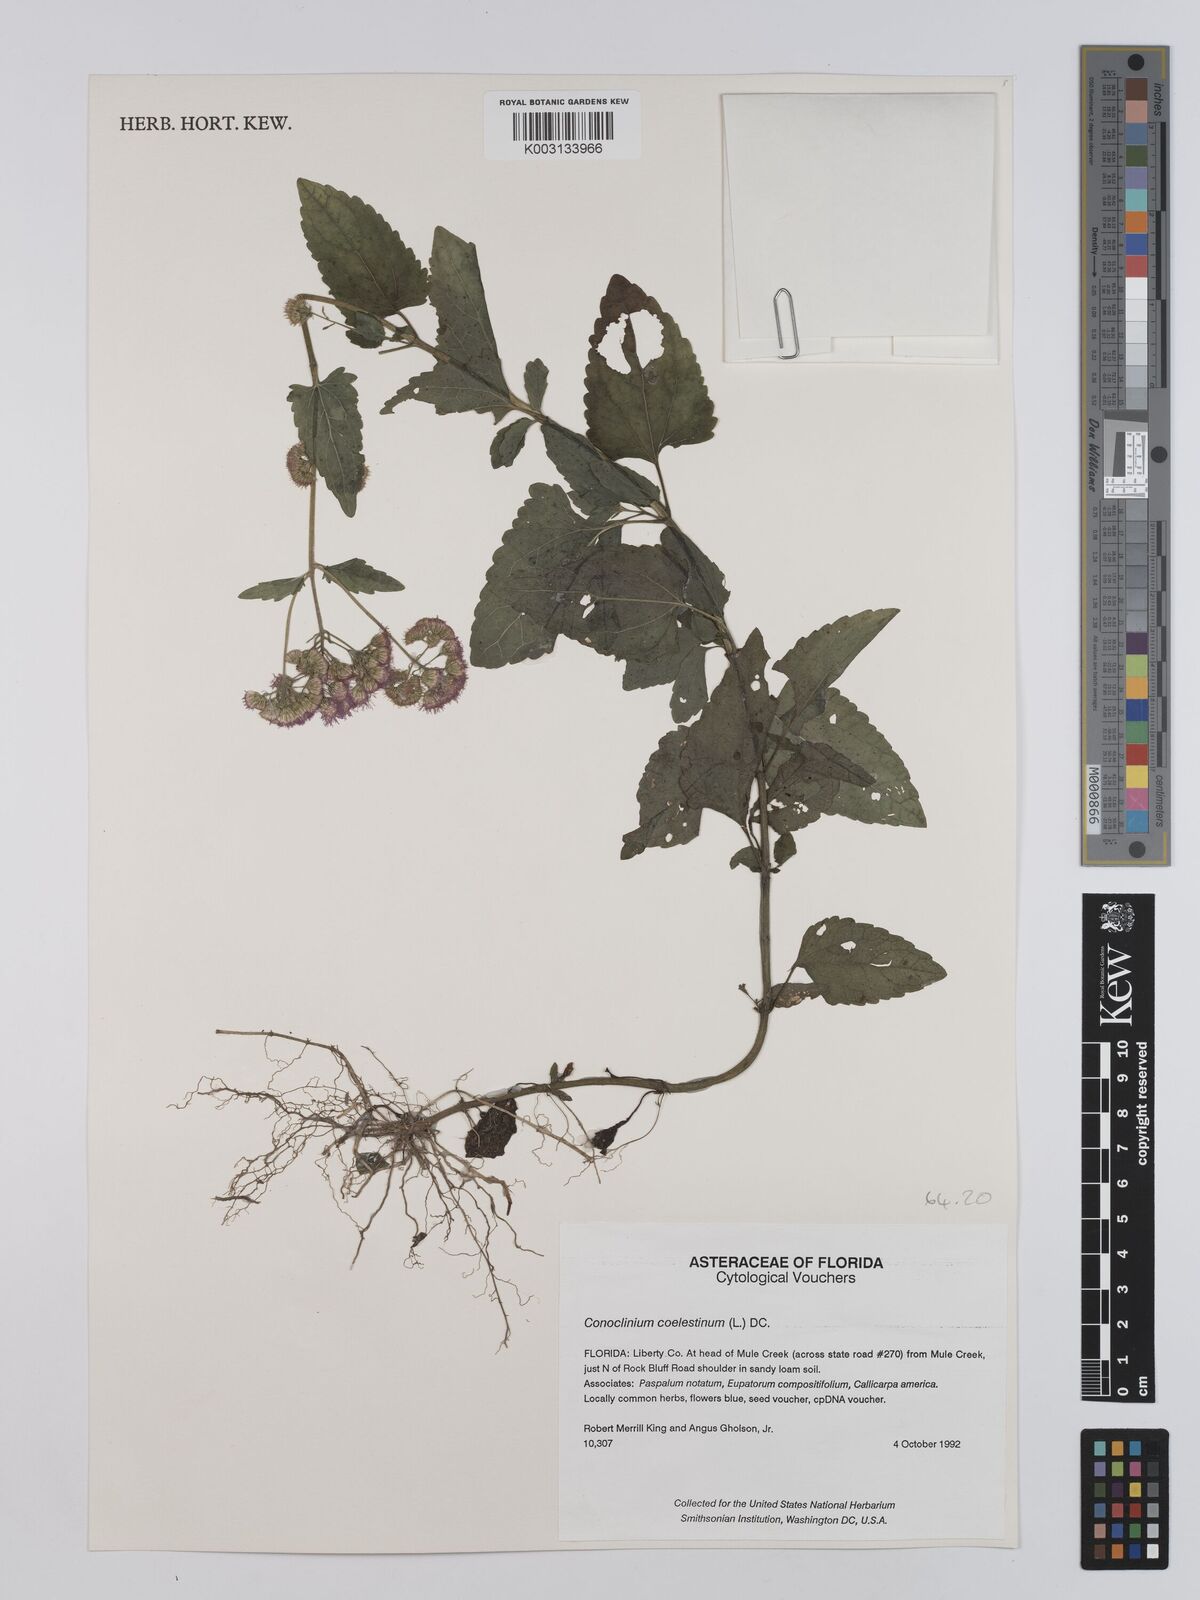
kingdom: Plantae
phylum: Tracheophyta
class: Magnoliopsida
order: Asterales
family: Asteraceae
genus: Conoclinium
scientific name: Conoclinium coelestinum
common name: Blue mistflower
